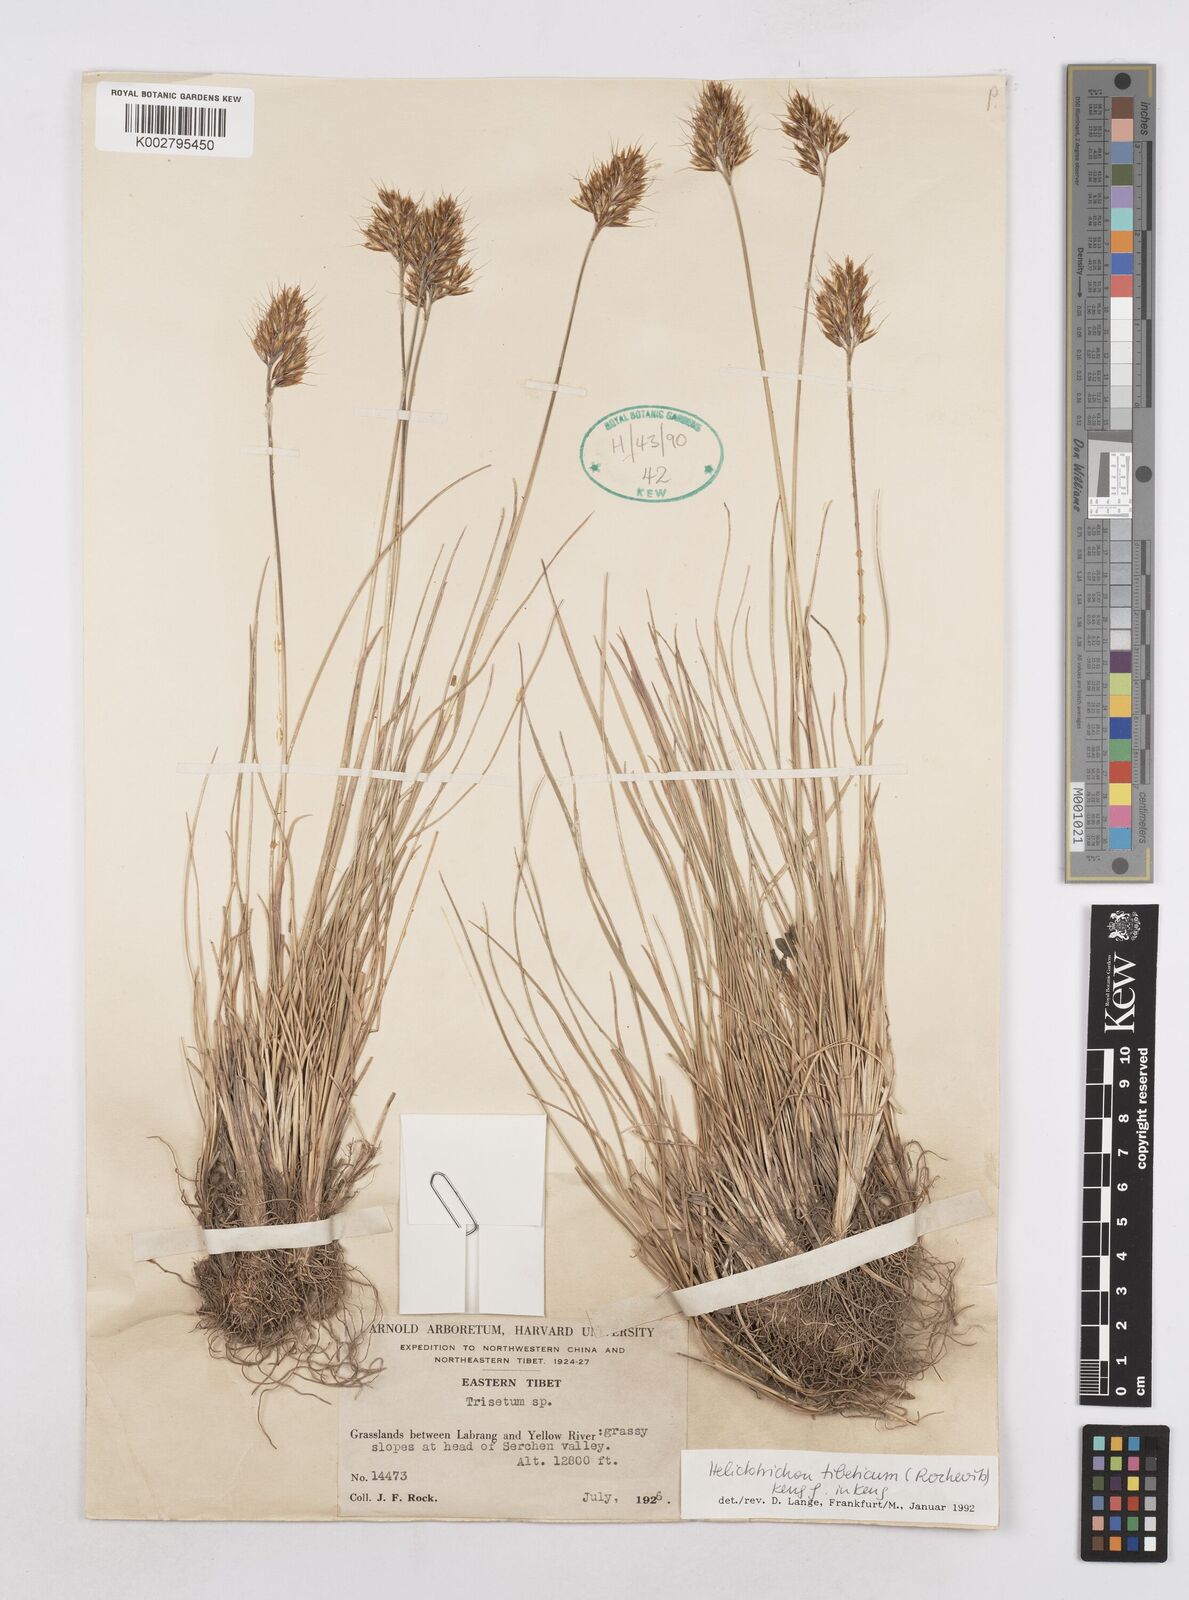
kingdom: Plantae
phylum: Tracheophyta
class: Liliopsida
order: Poales
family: Poaceae
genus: Helictotrichon
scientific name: Helictotrichon tibeticum
